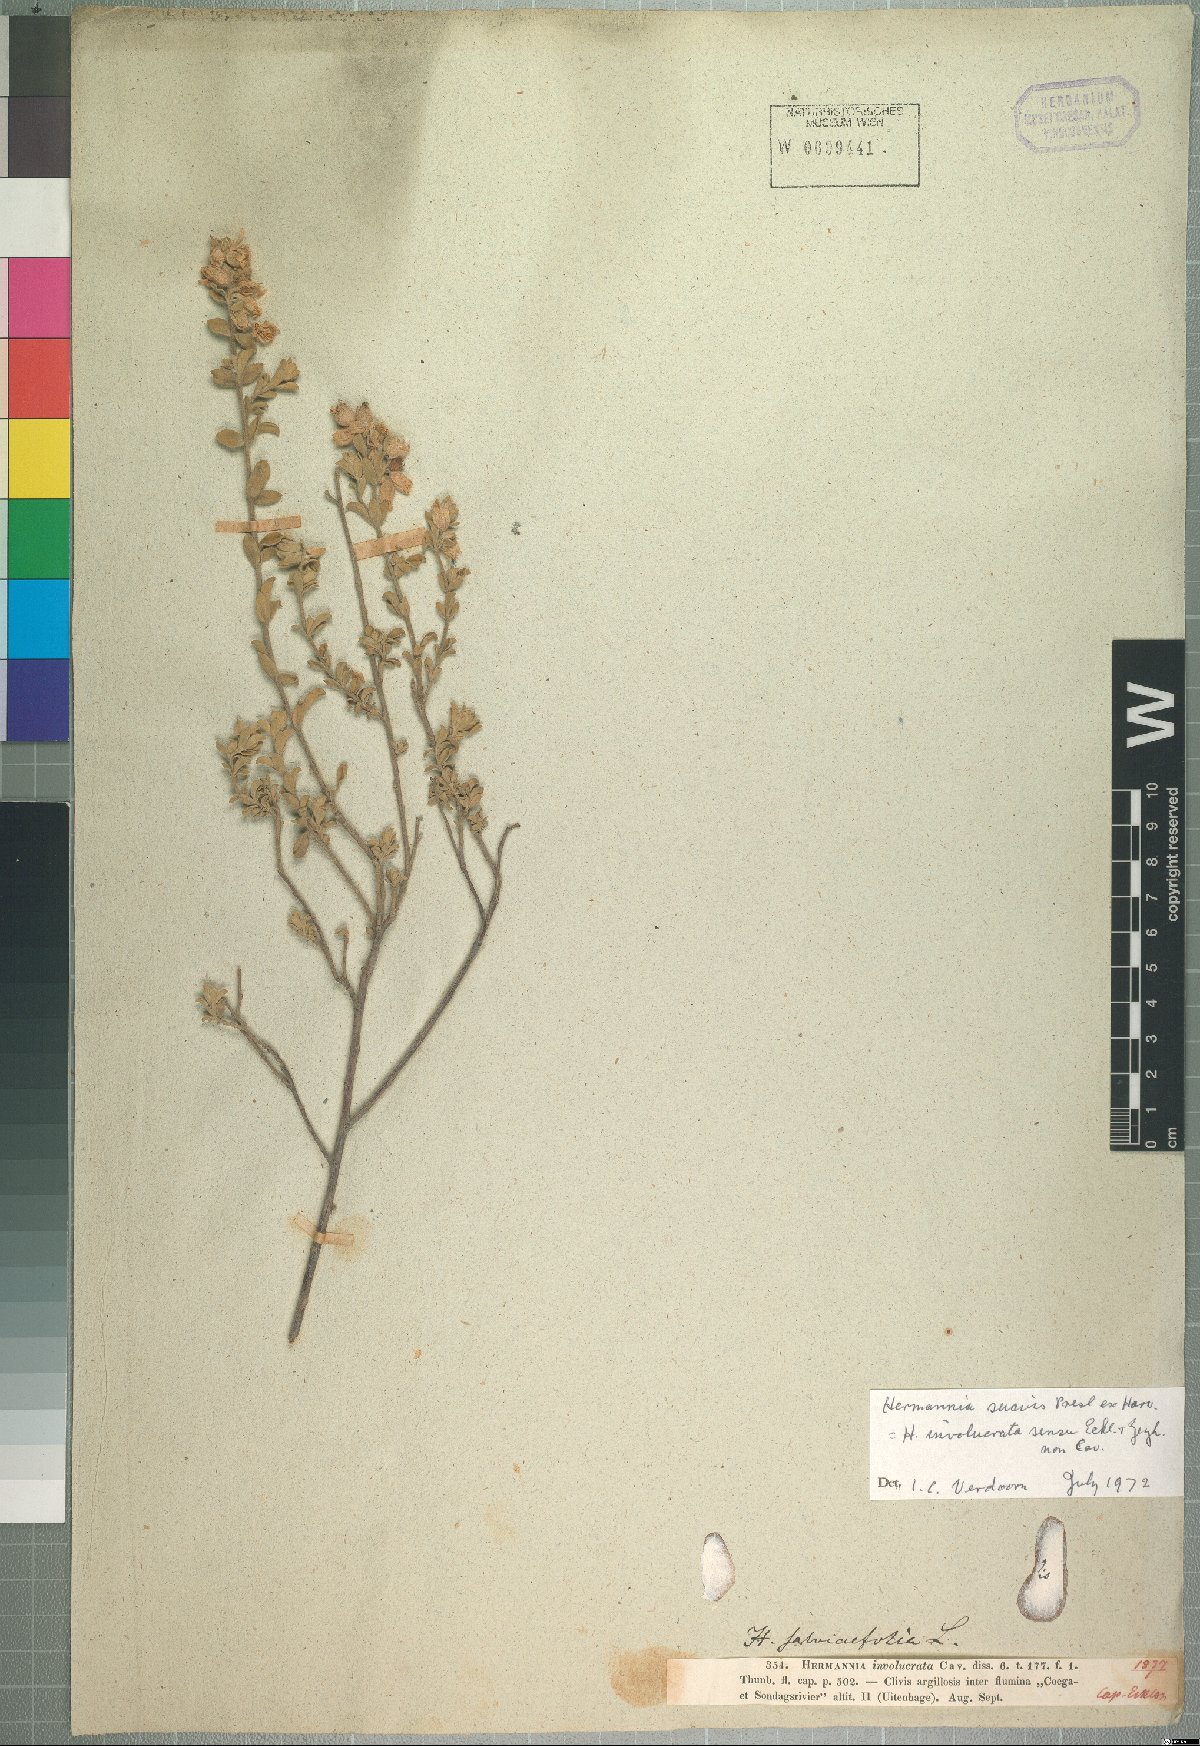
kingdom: Plantae
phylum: Tracheophyta
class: Magnoliopsida
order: Malvales
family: Malvaceae
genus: Hermannia
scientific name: Hermannia suavis
